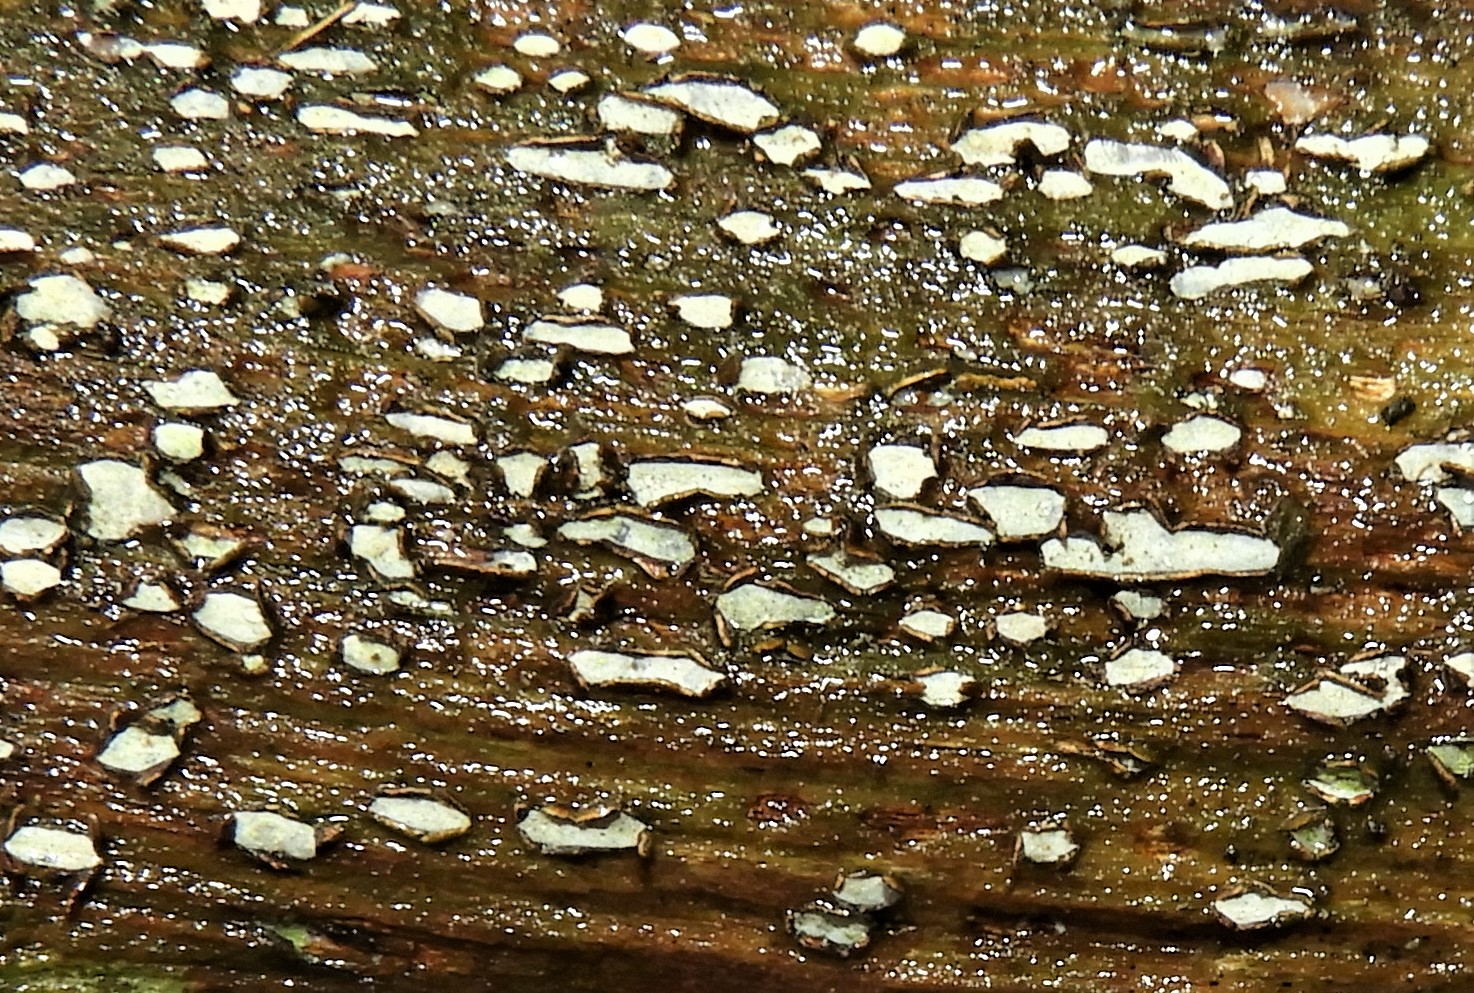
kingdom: Fungi
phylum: Ascomycota
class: Leotiomycetes
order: Chaetomellales
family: Marthamycetaceae
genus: Propolis
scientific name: Propolis farinosa
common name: almindelig vedsprængerskive
